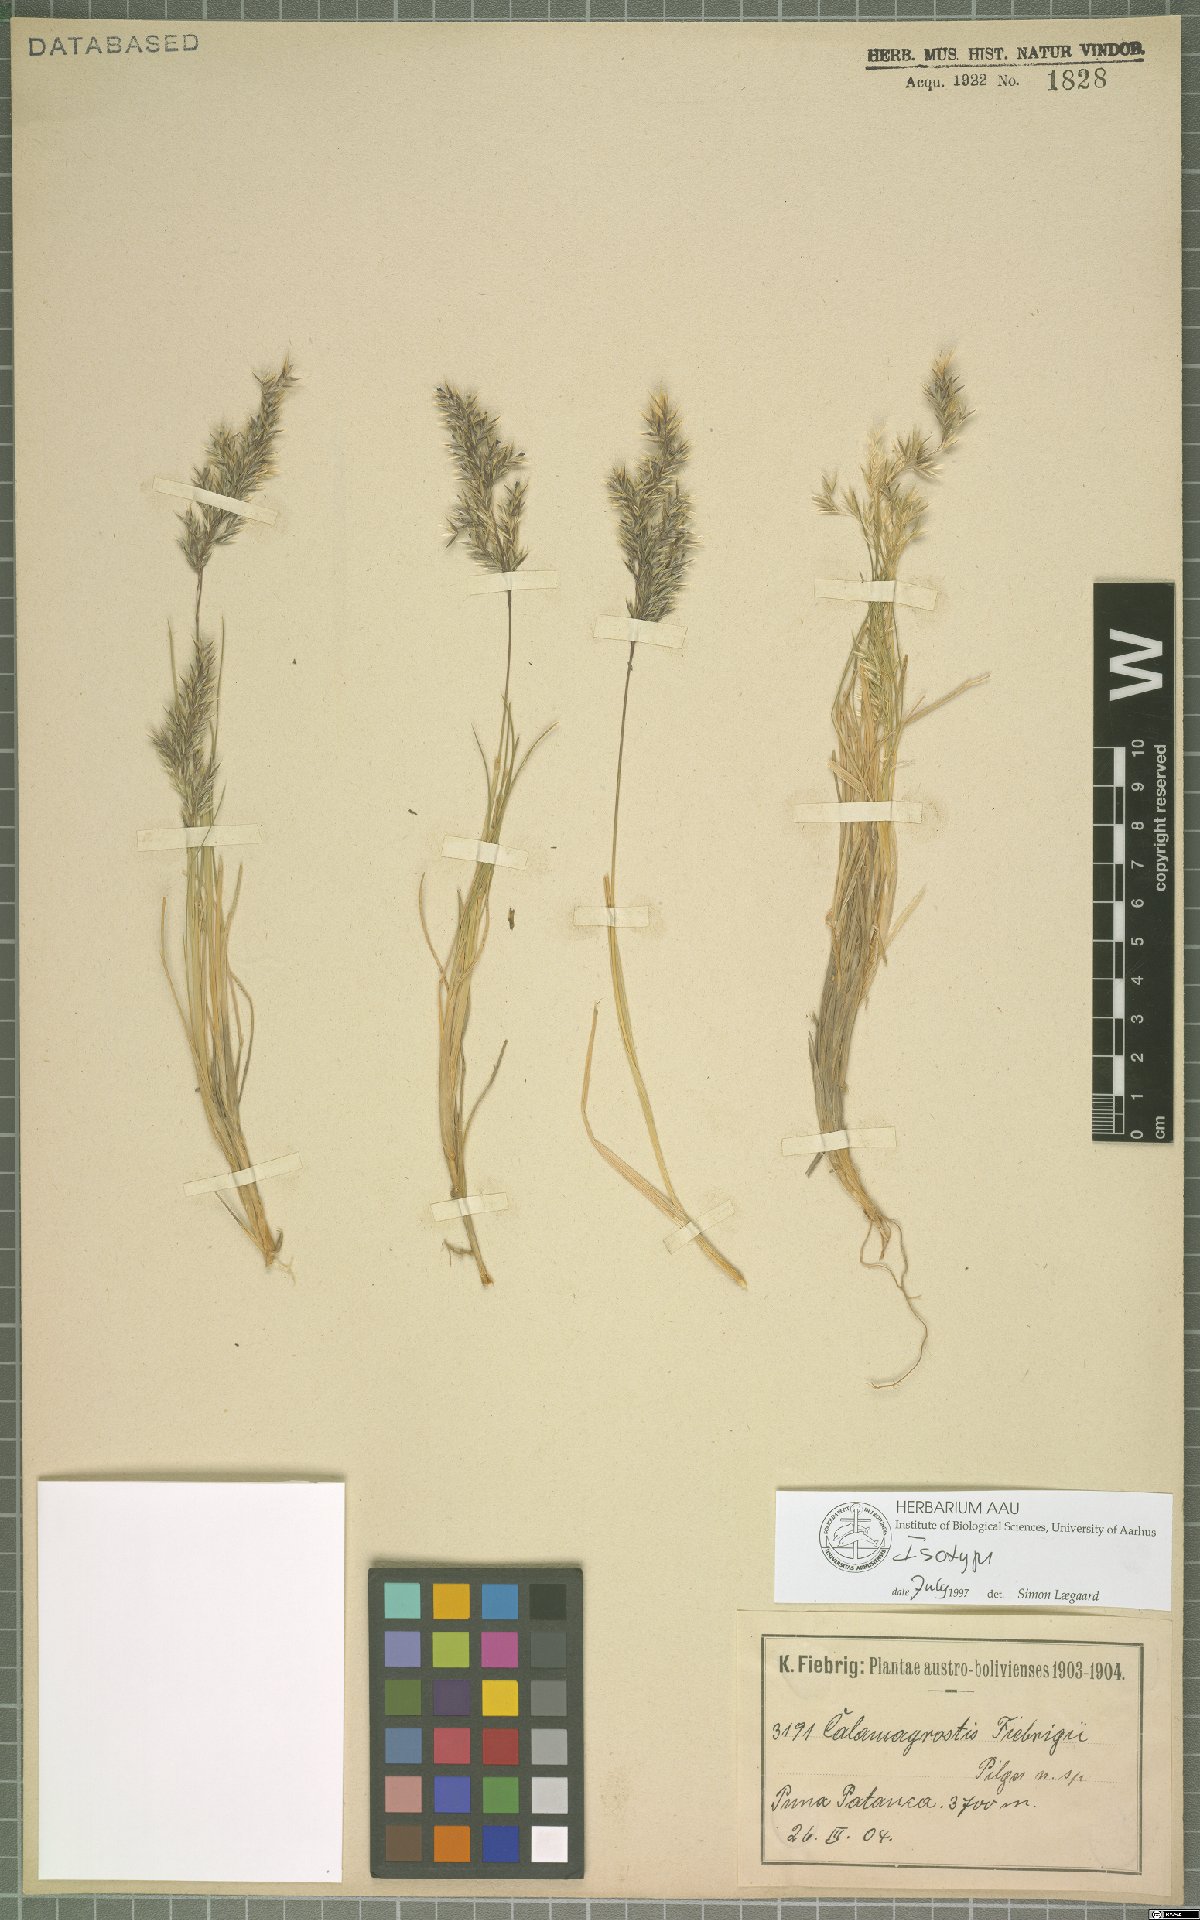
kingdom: Plantae
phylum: Tracheophyta
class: Liliopsida
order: Poales
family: Poaceae
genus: Cinnagrostis
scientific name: Cinnagrostis fiebrigii
